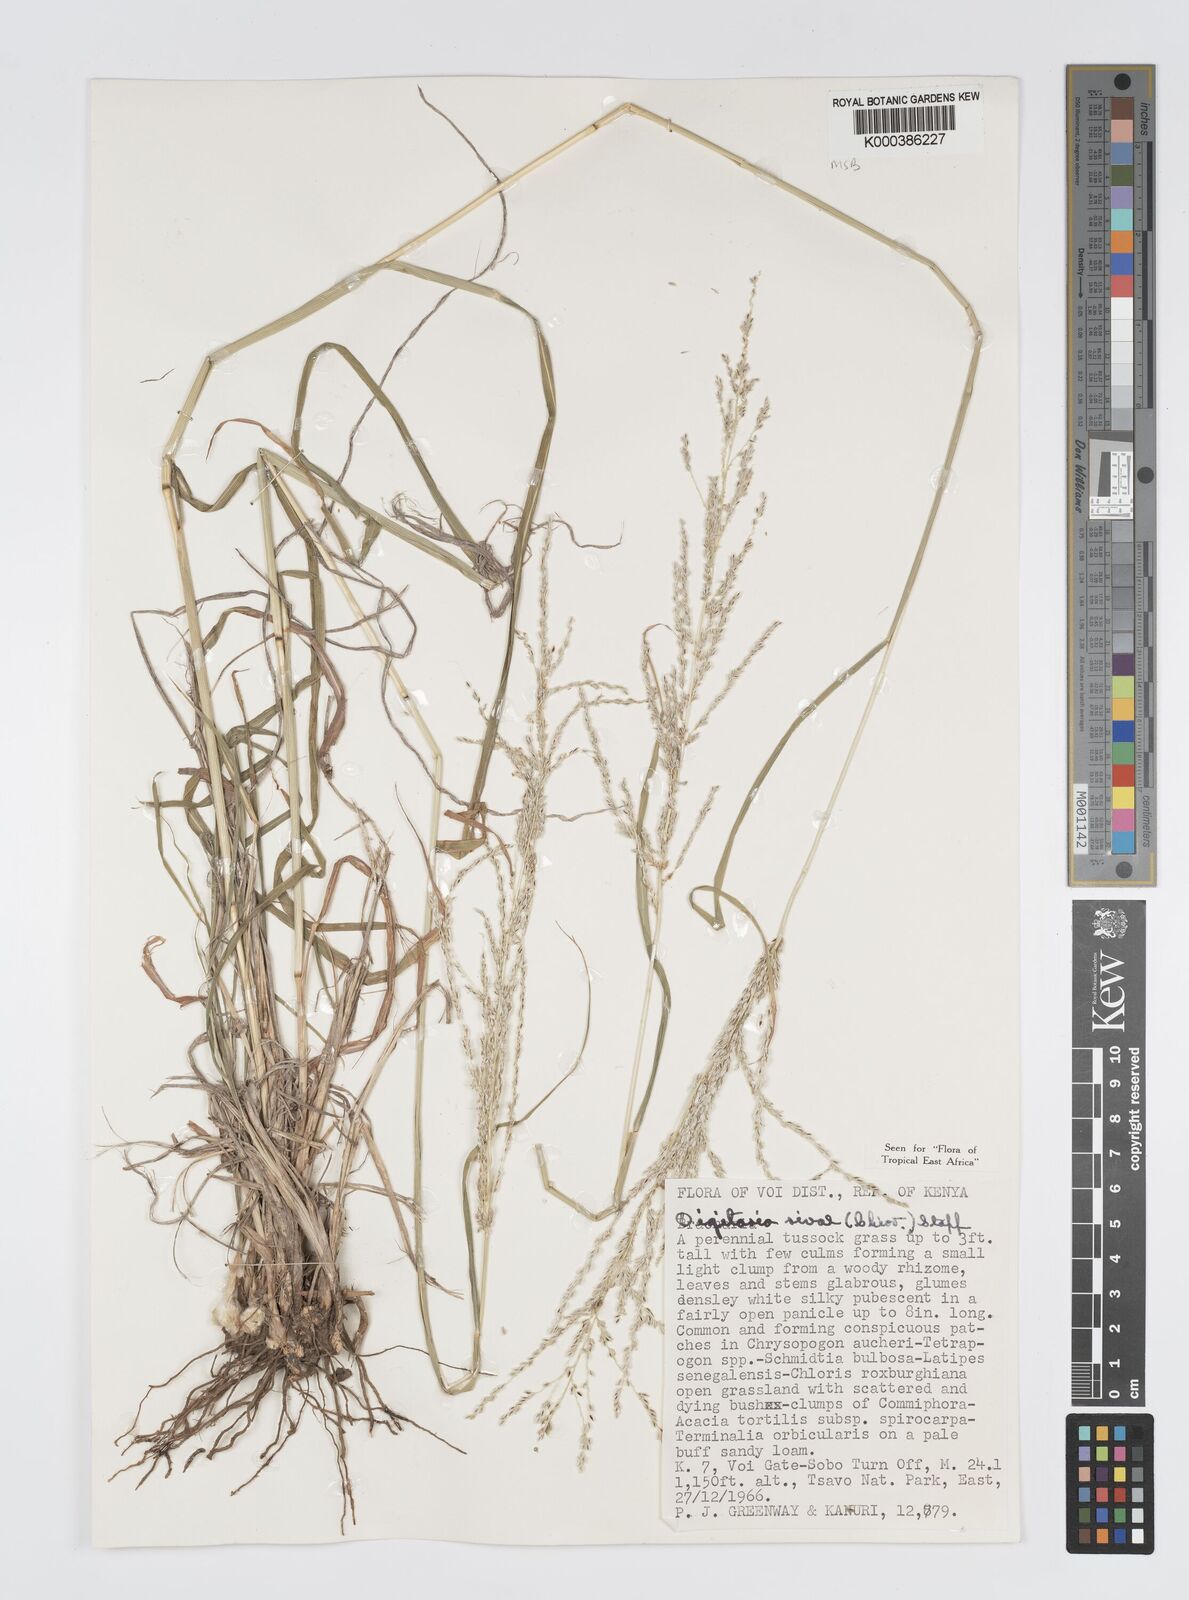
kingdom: Plantae
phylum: Tracheophyta
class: Liliopsida
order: Poales
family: Poaceae
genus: Digitaria
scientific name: Digitaria rivae
